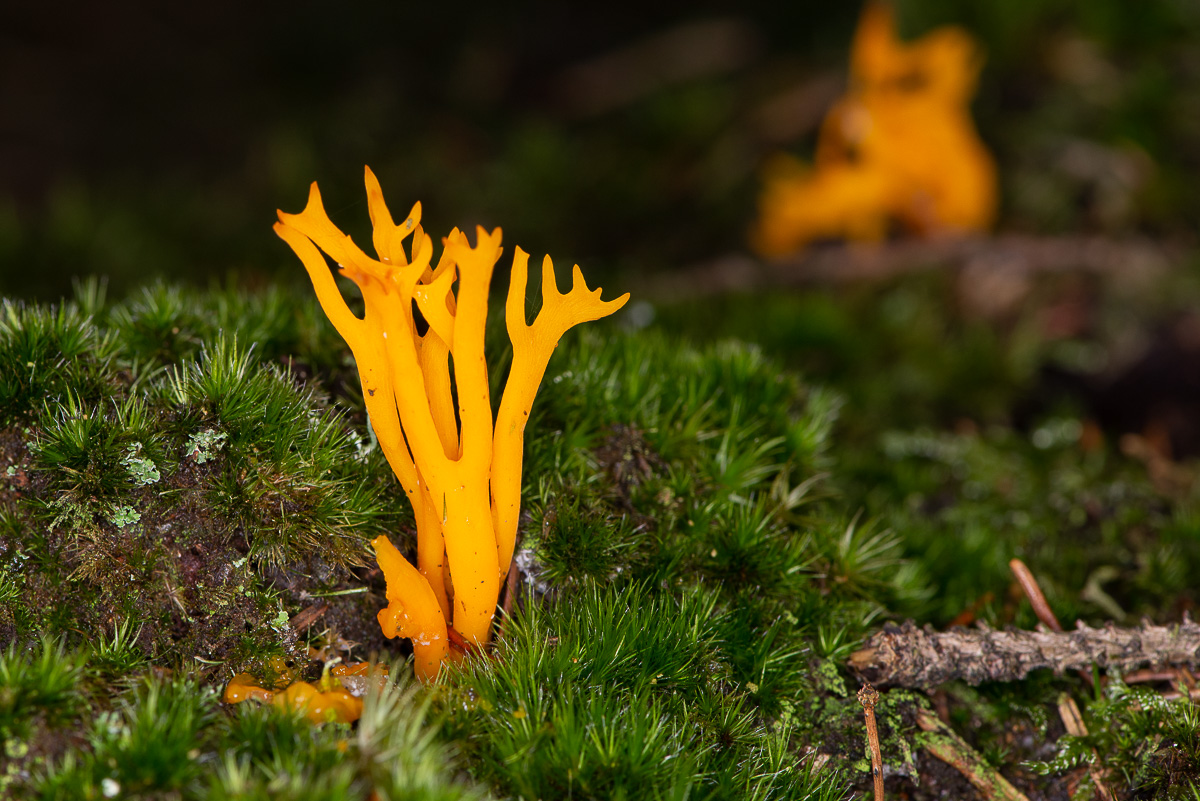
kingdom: Fungi
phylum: Basidiomycota
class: Dacrymycetes
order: Dacrymycetales
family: Dacrymycetaceae
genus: Calocera
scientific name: Calocera viscosa
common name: almindelig guldgaffel
